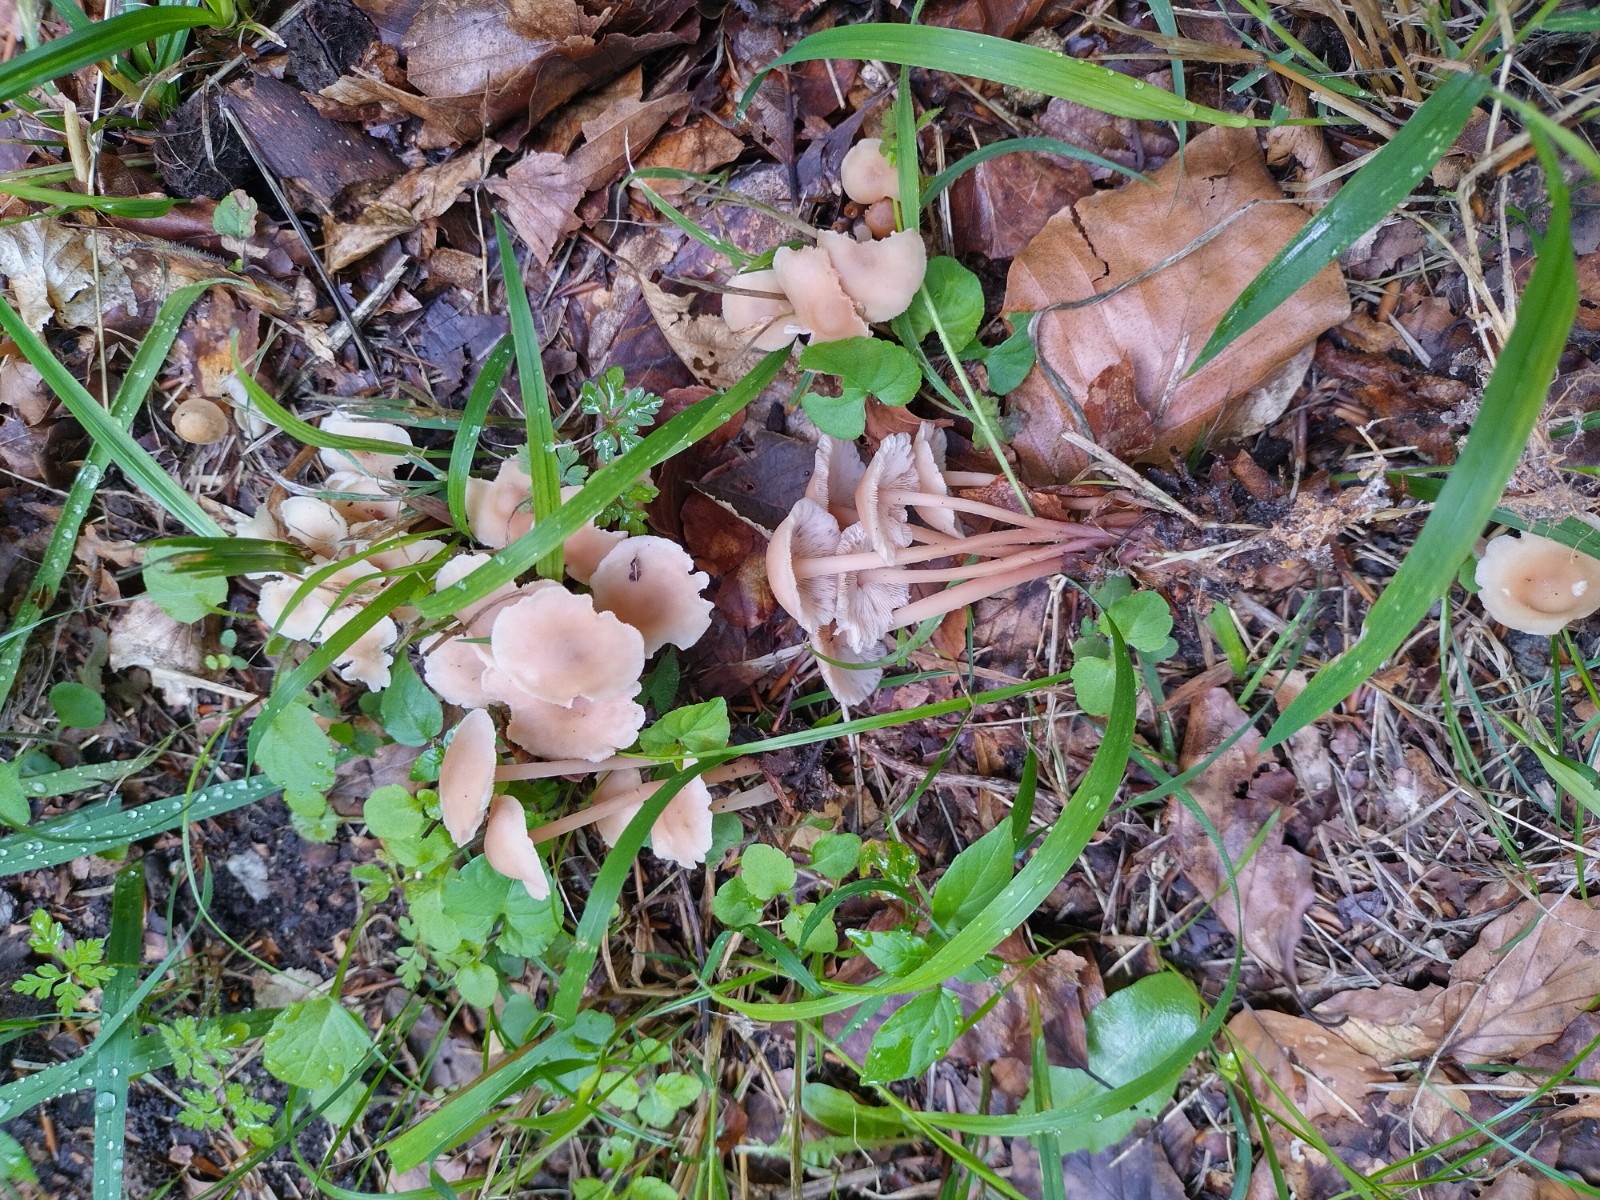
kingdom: Fungi
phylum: Basidiomycota
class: Agaricomycetes
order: Agaricales
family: Omphalotaceae
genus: Collybiopsis
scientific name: Collybiopsis confluens
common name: knippe-fladhat
